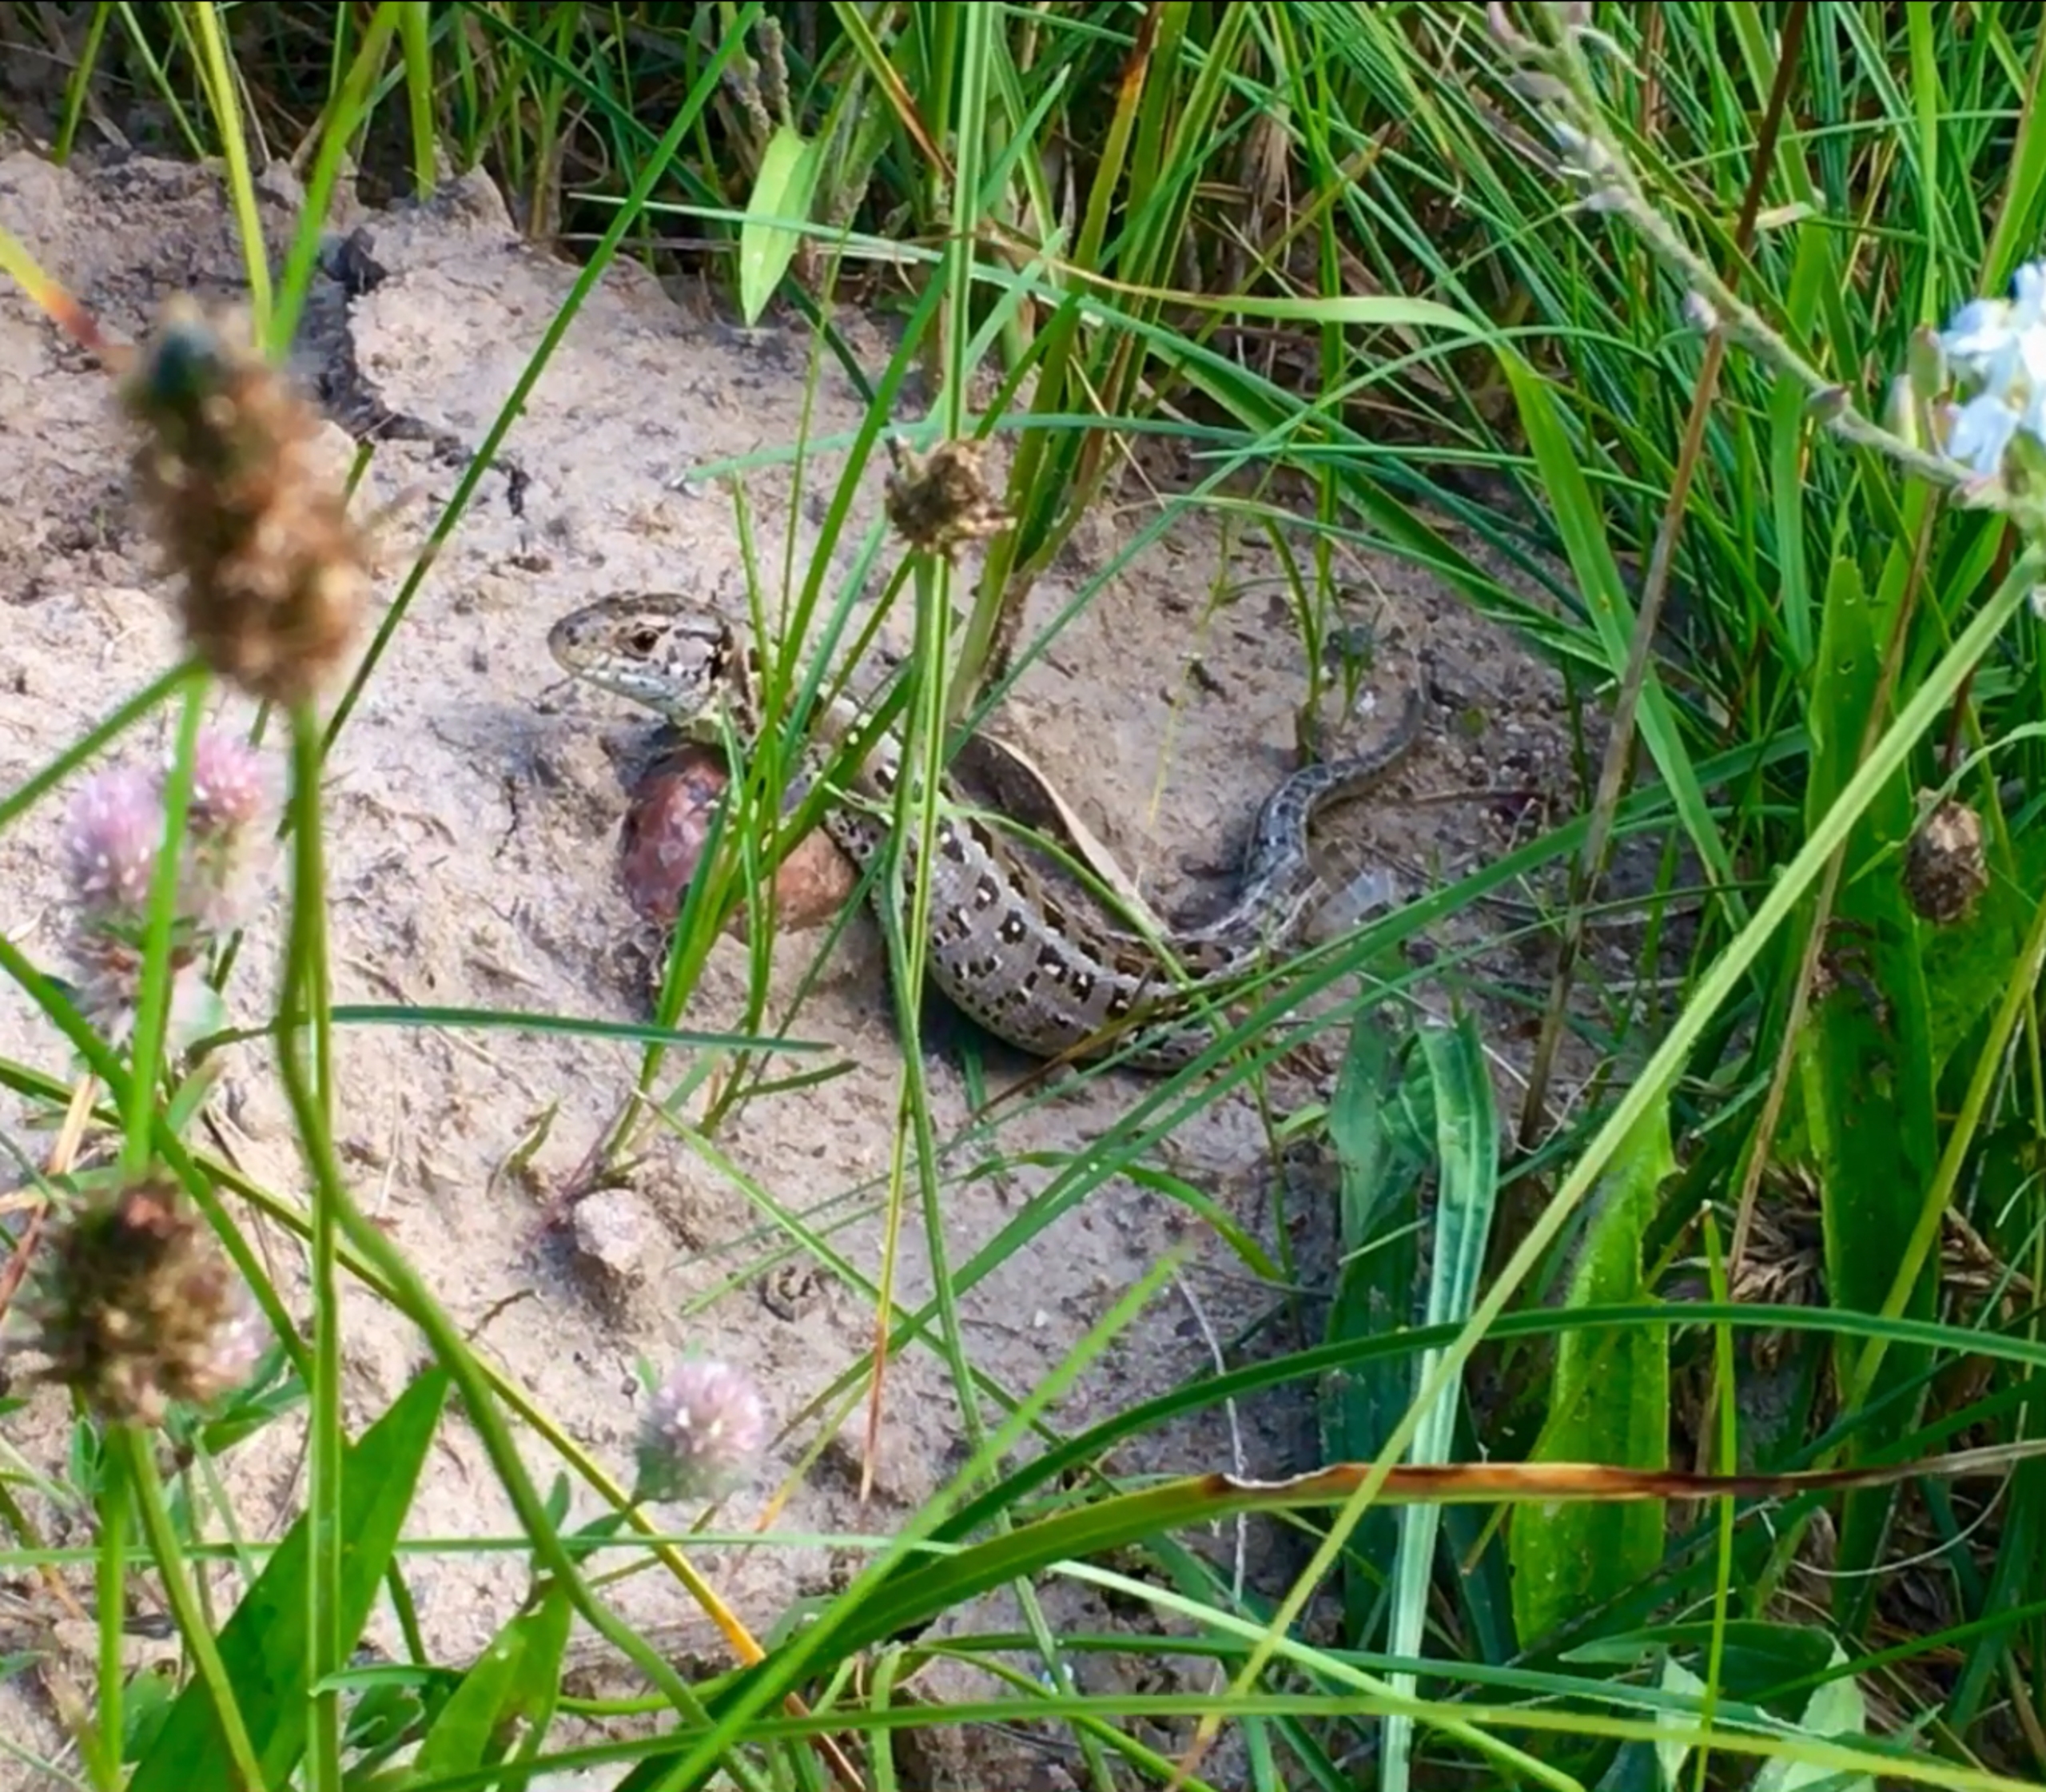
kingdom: Animalia
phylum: Chordata
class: Squamata
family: Lacertidae
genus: Lacerta
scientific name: Lacerta agilis
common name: Markfirben
